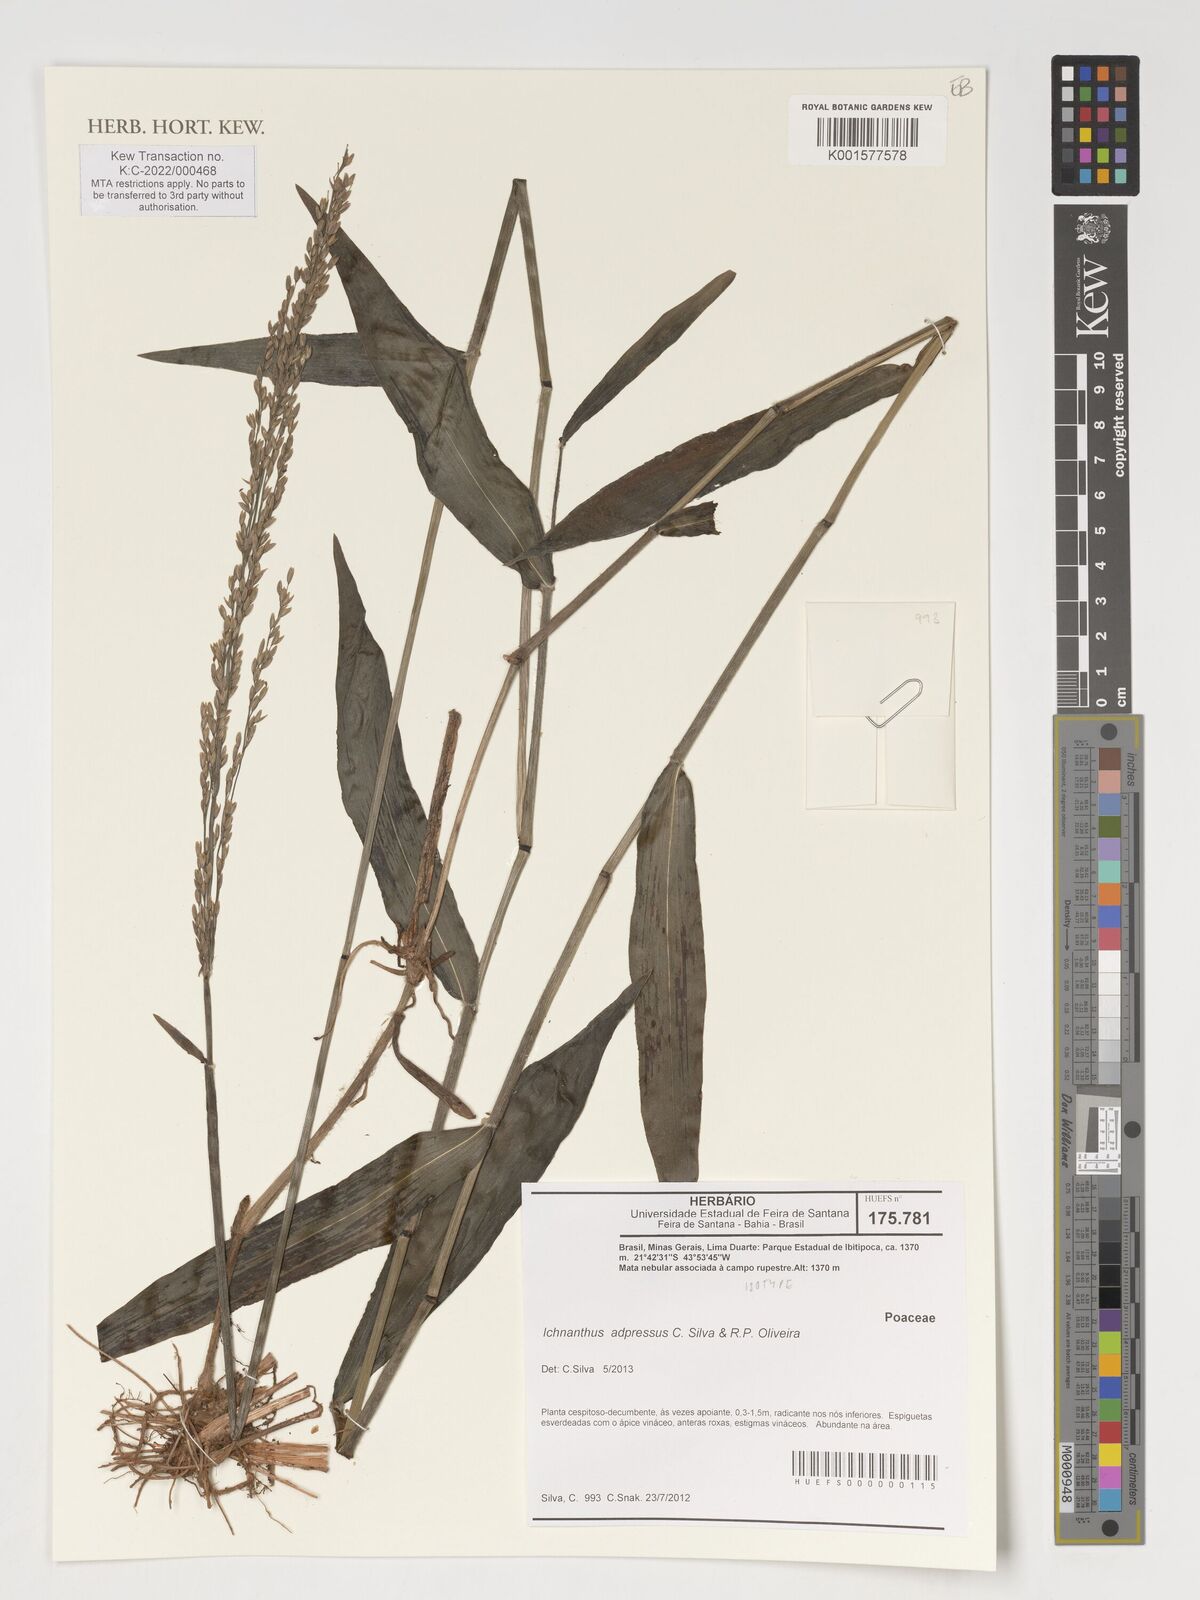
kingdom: Plantae
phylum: Tracheophyta
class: Liliopsida
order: Poales
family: Poaceae
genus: Ichnanthus
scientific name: Ichnanthus adpressus
